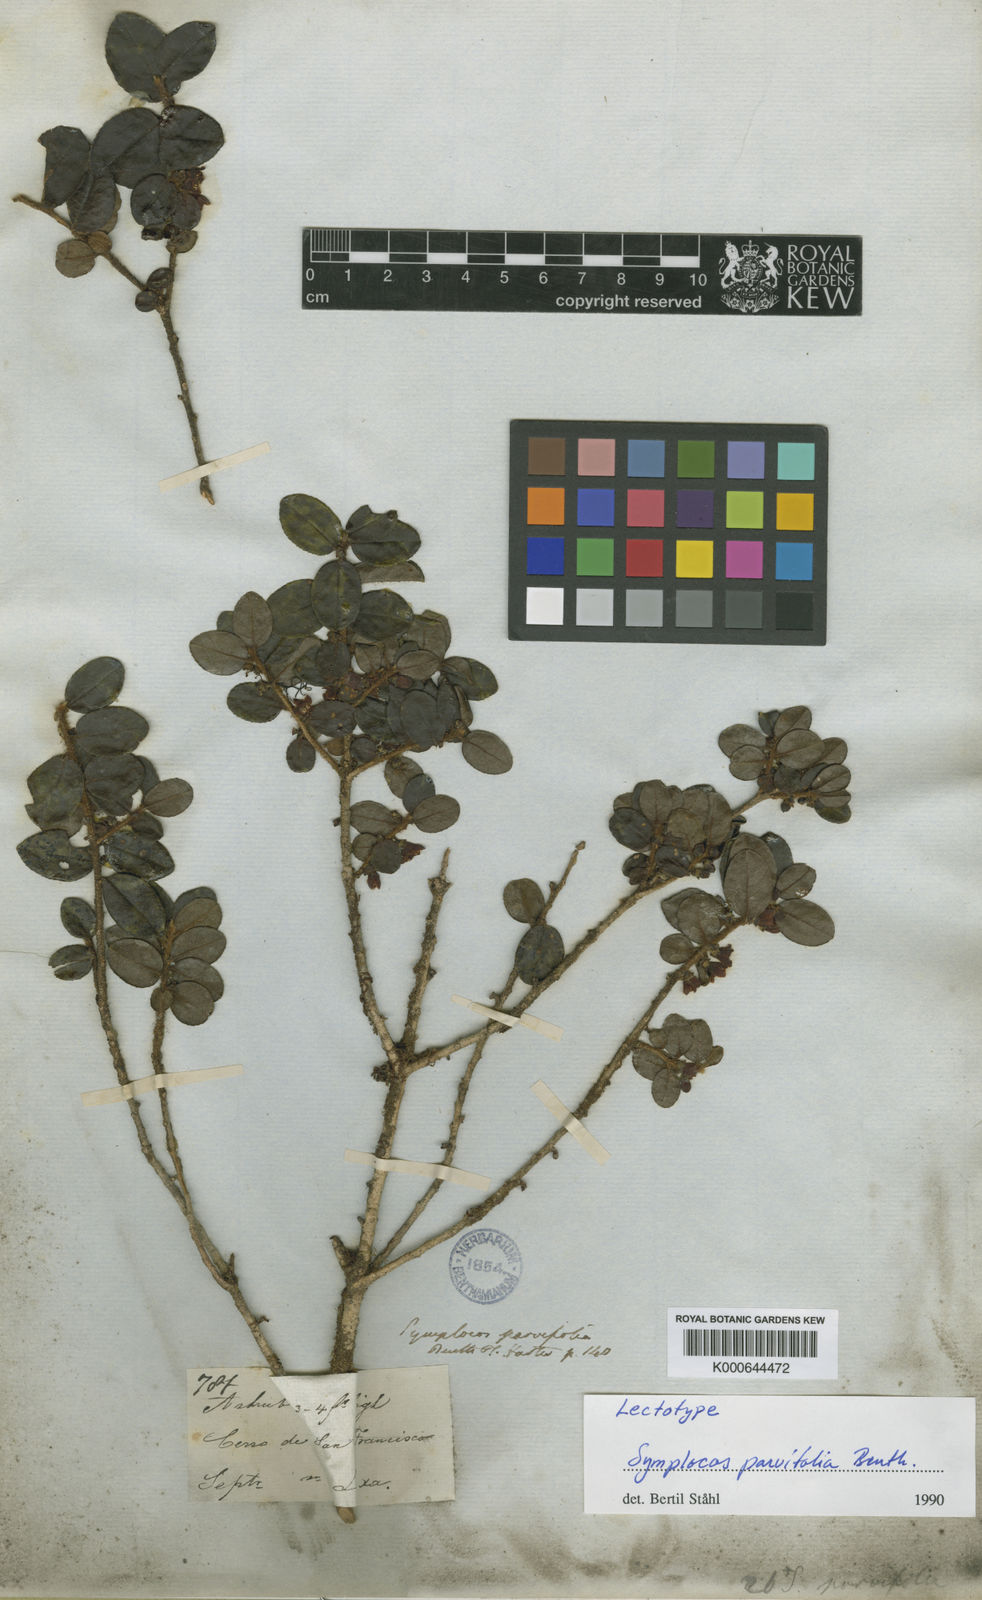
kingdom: Plantae
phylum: Tracheophyta
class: Magnoliopsida
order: Ericales
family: Symplocaceae
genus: Symplocos
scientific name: Symplocos uniflora
